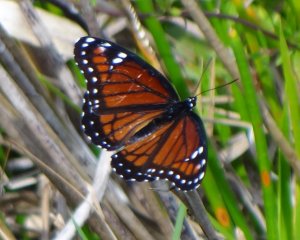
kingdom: Animalia
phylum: Arthropoda
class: Insecta
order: Lepidoptera
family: Nymphalidae
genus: Limenitis
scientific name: Limenitis archippus
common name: Viceroy
